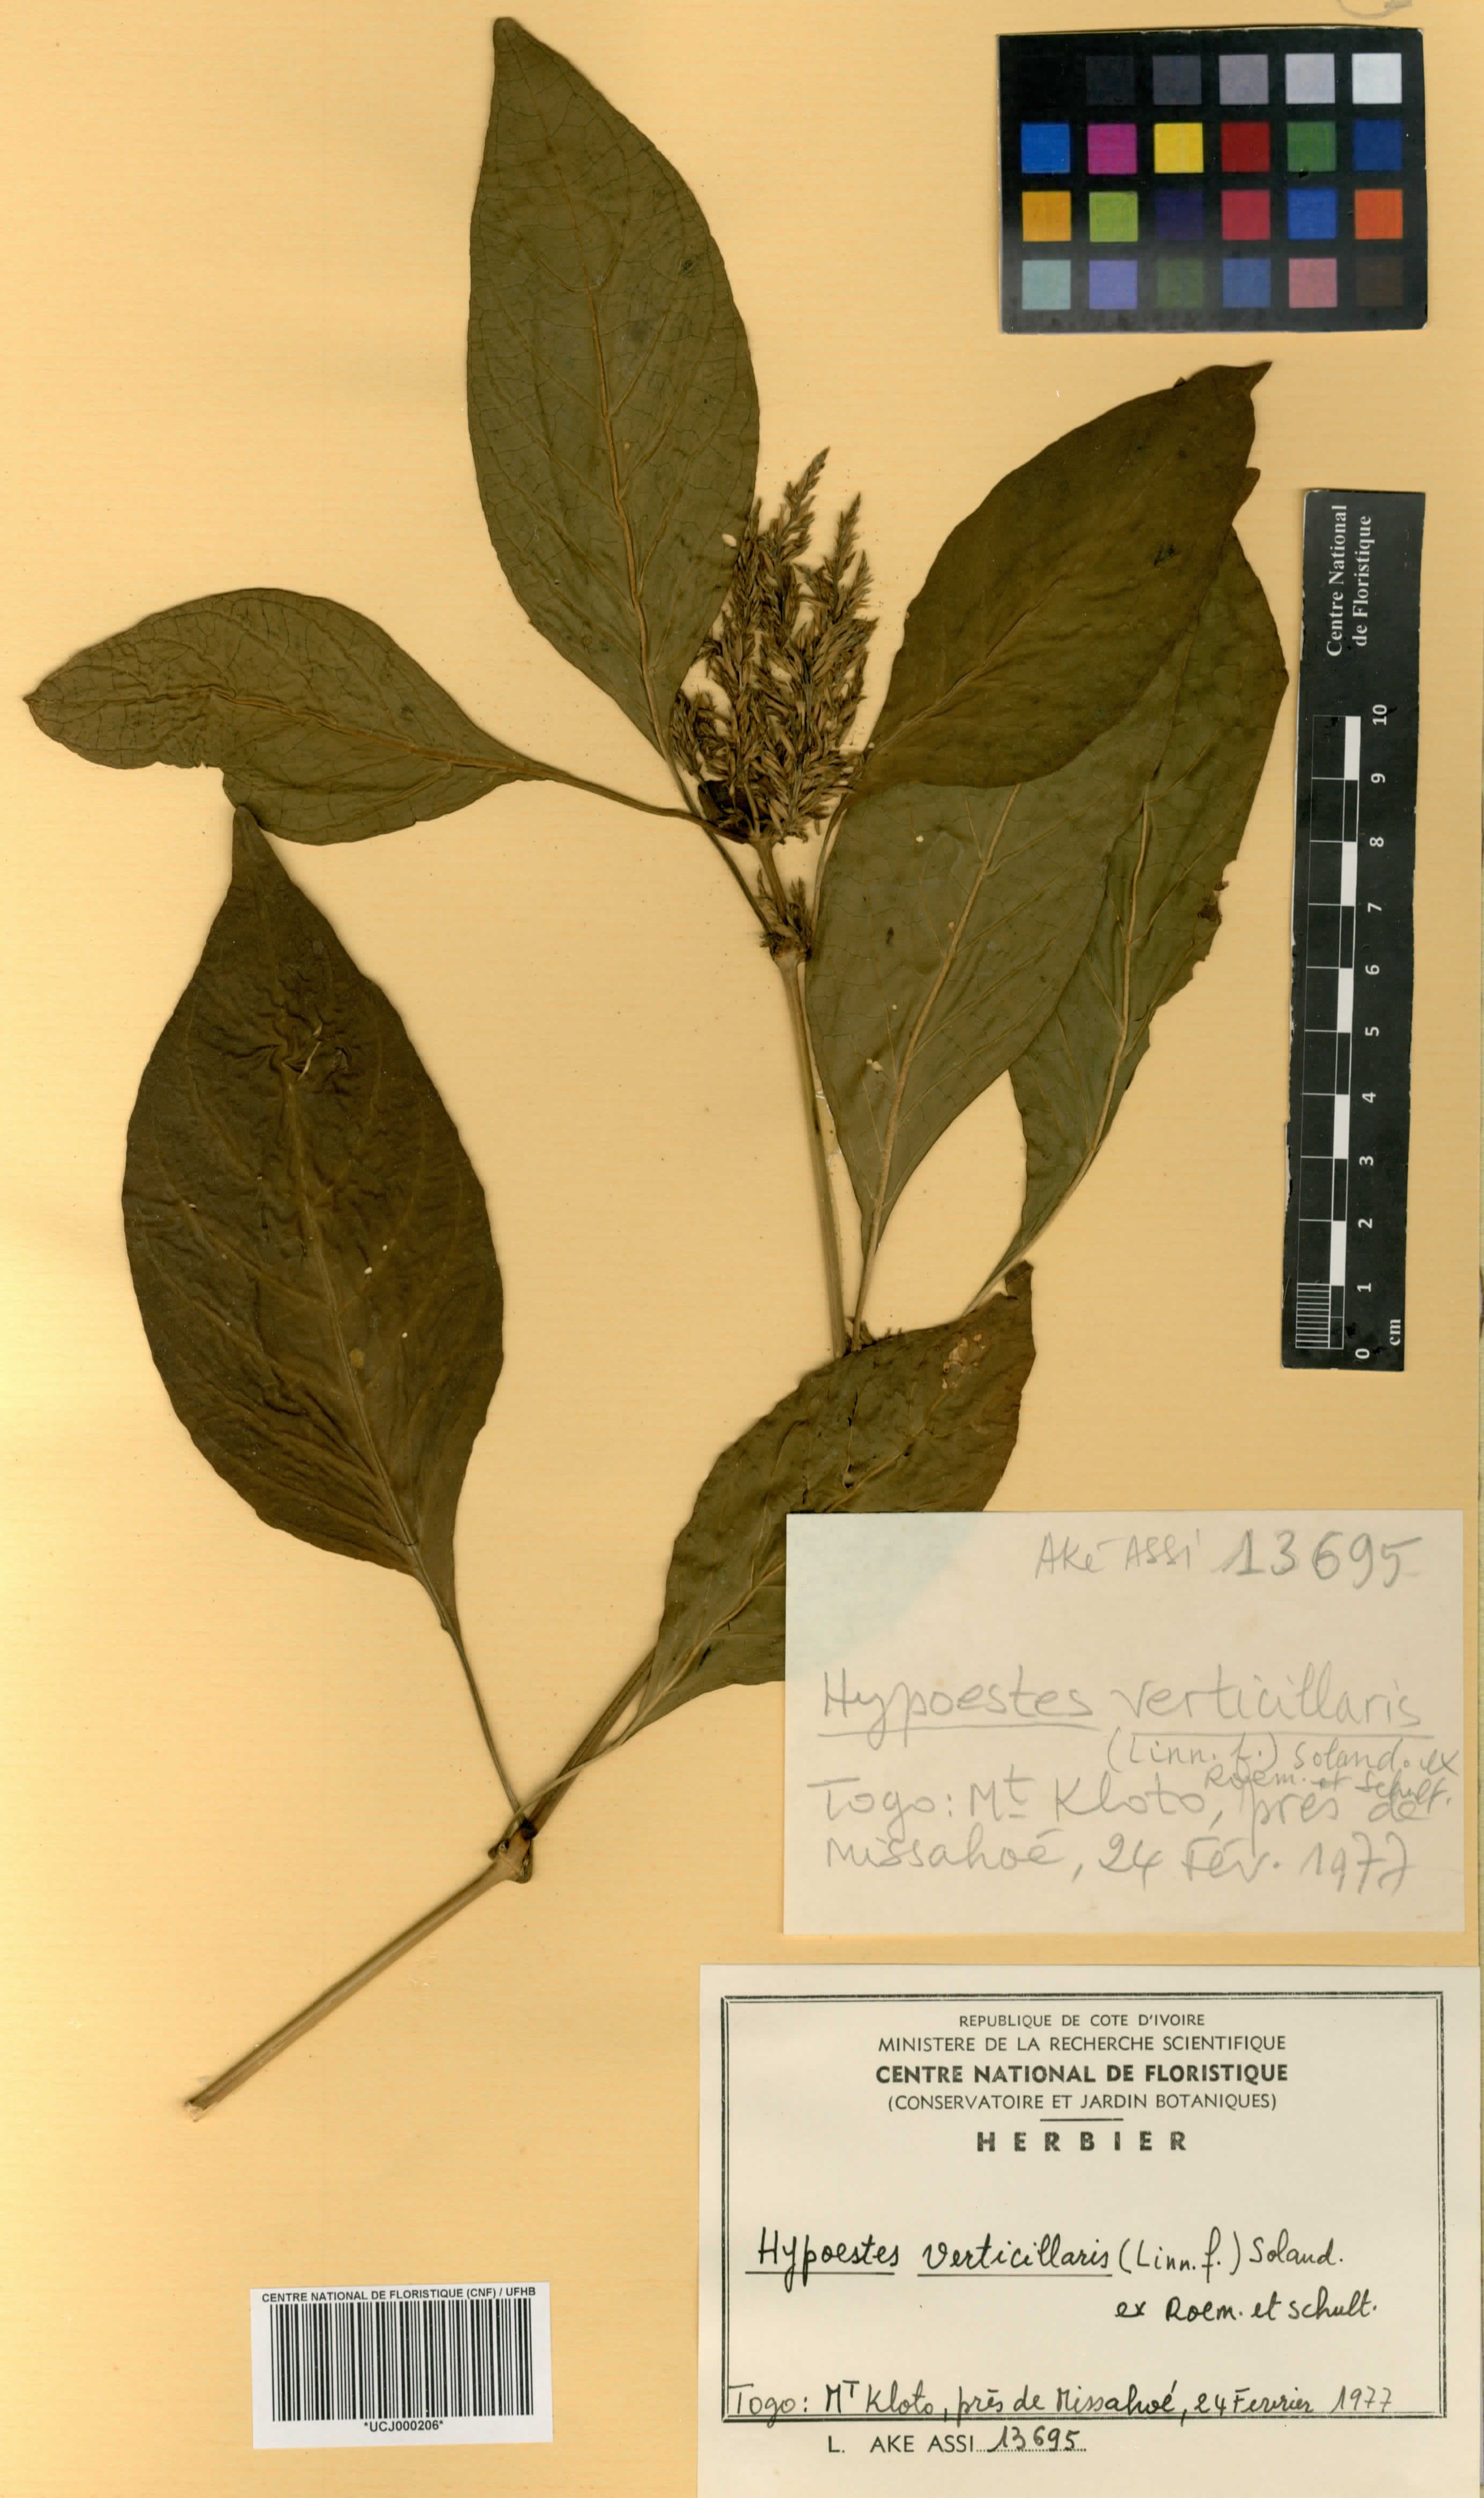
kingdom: Plantae
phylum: Tracheophyta
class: Magnoliopsida
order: Lamiales
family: Acanthaceae
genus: Hypoestes
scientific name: Hypoestes aristata
